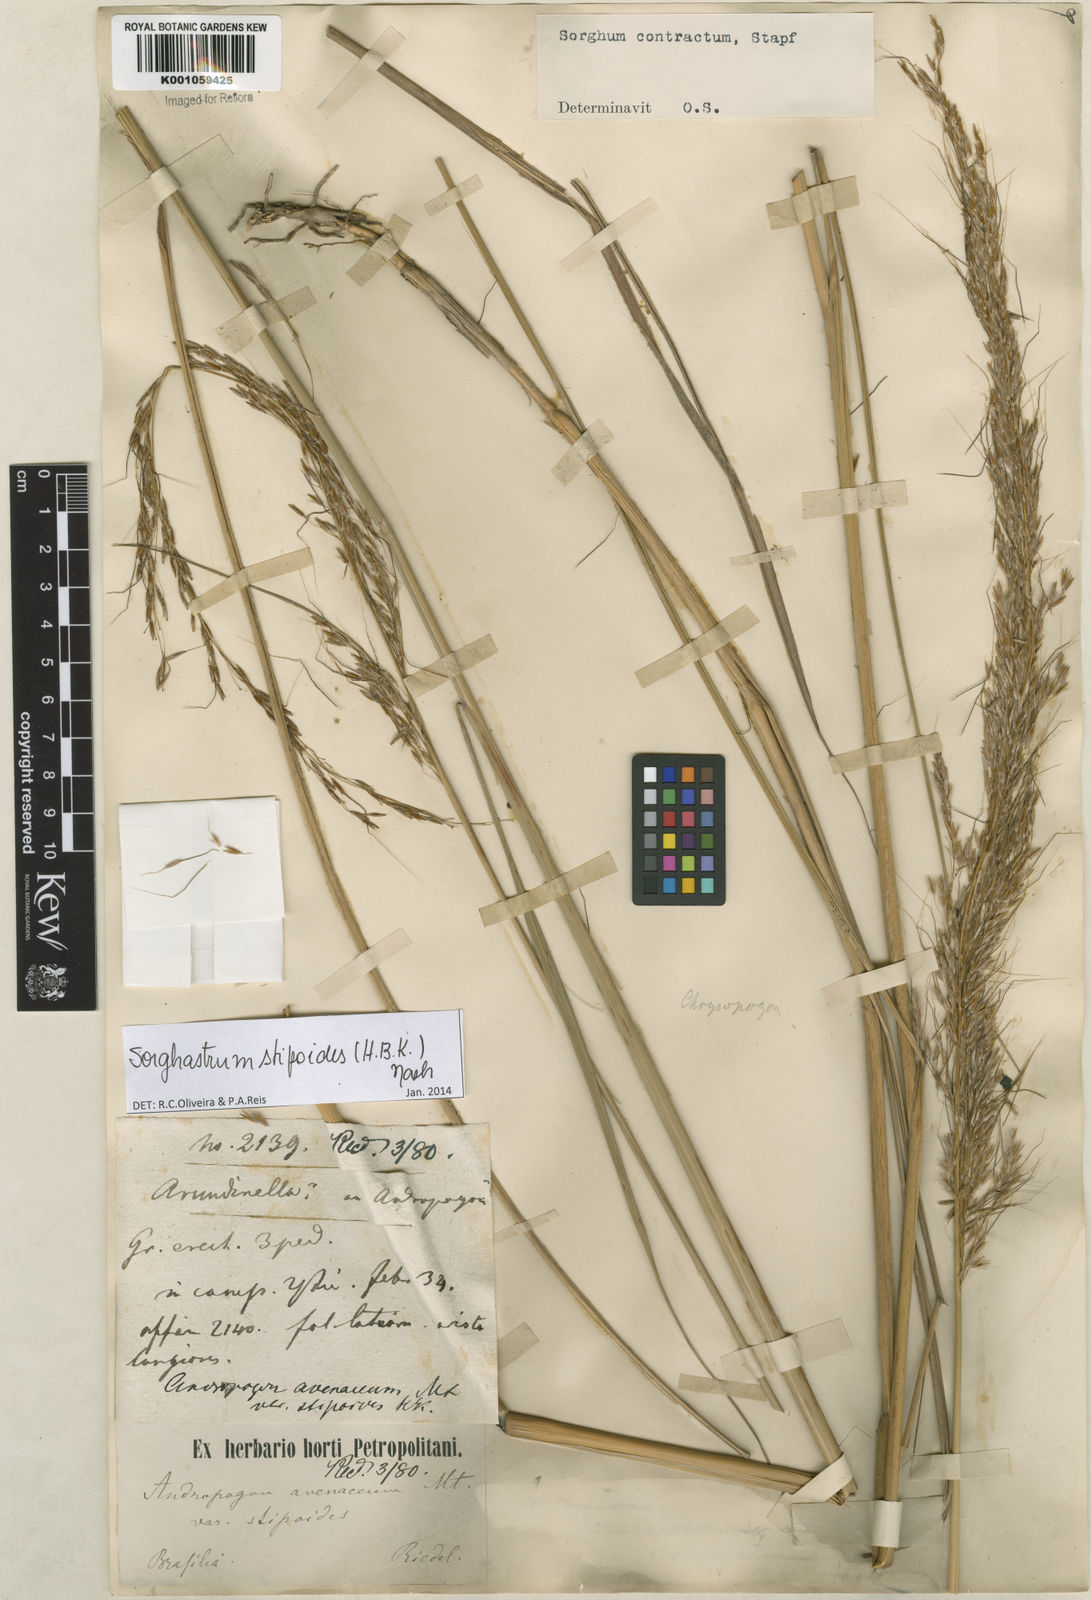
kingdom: Plantae
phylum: Tracheophyta
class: Liliopsida
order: Poales
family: Poaceae
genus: Sorghastrum
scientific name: Sorghastrum stipoides
